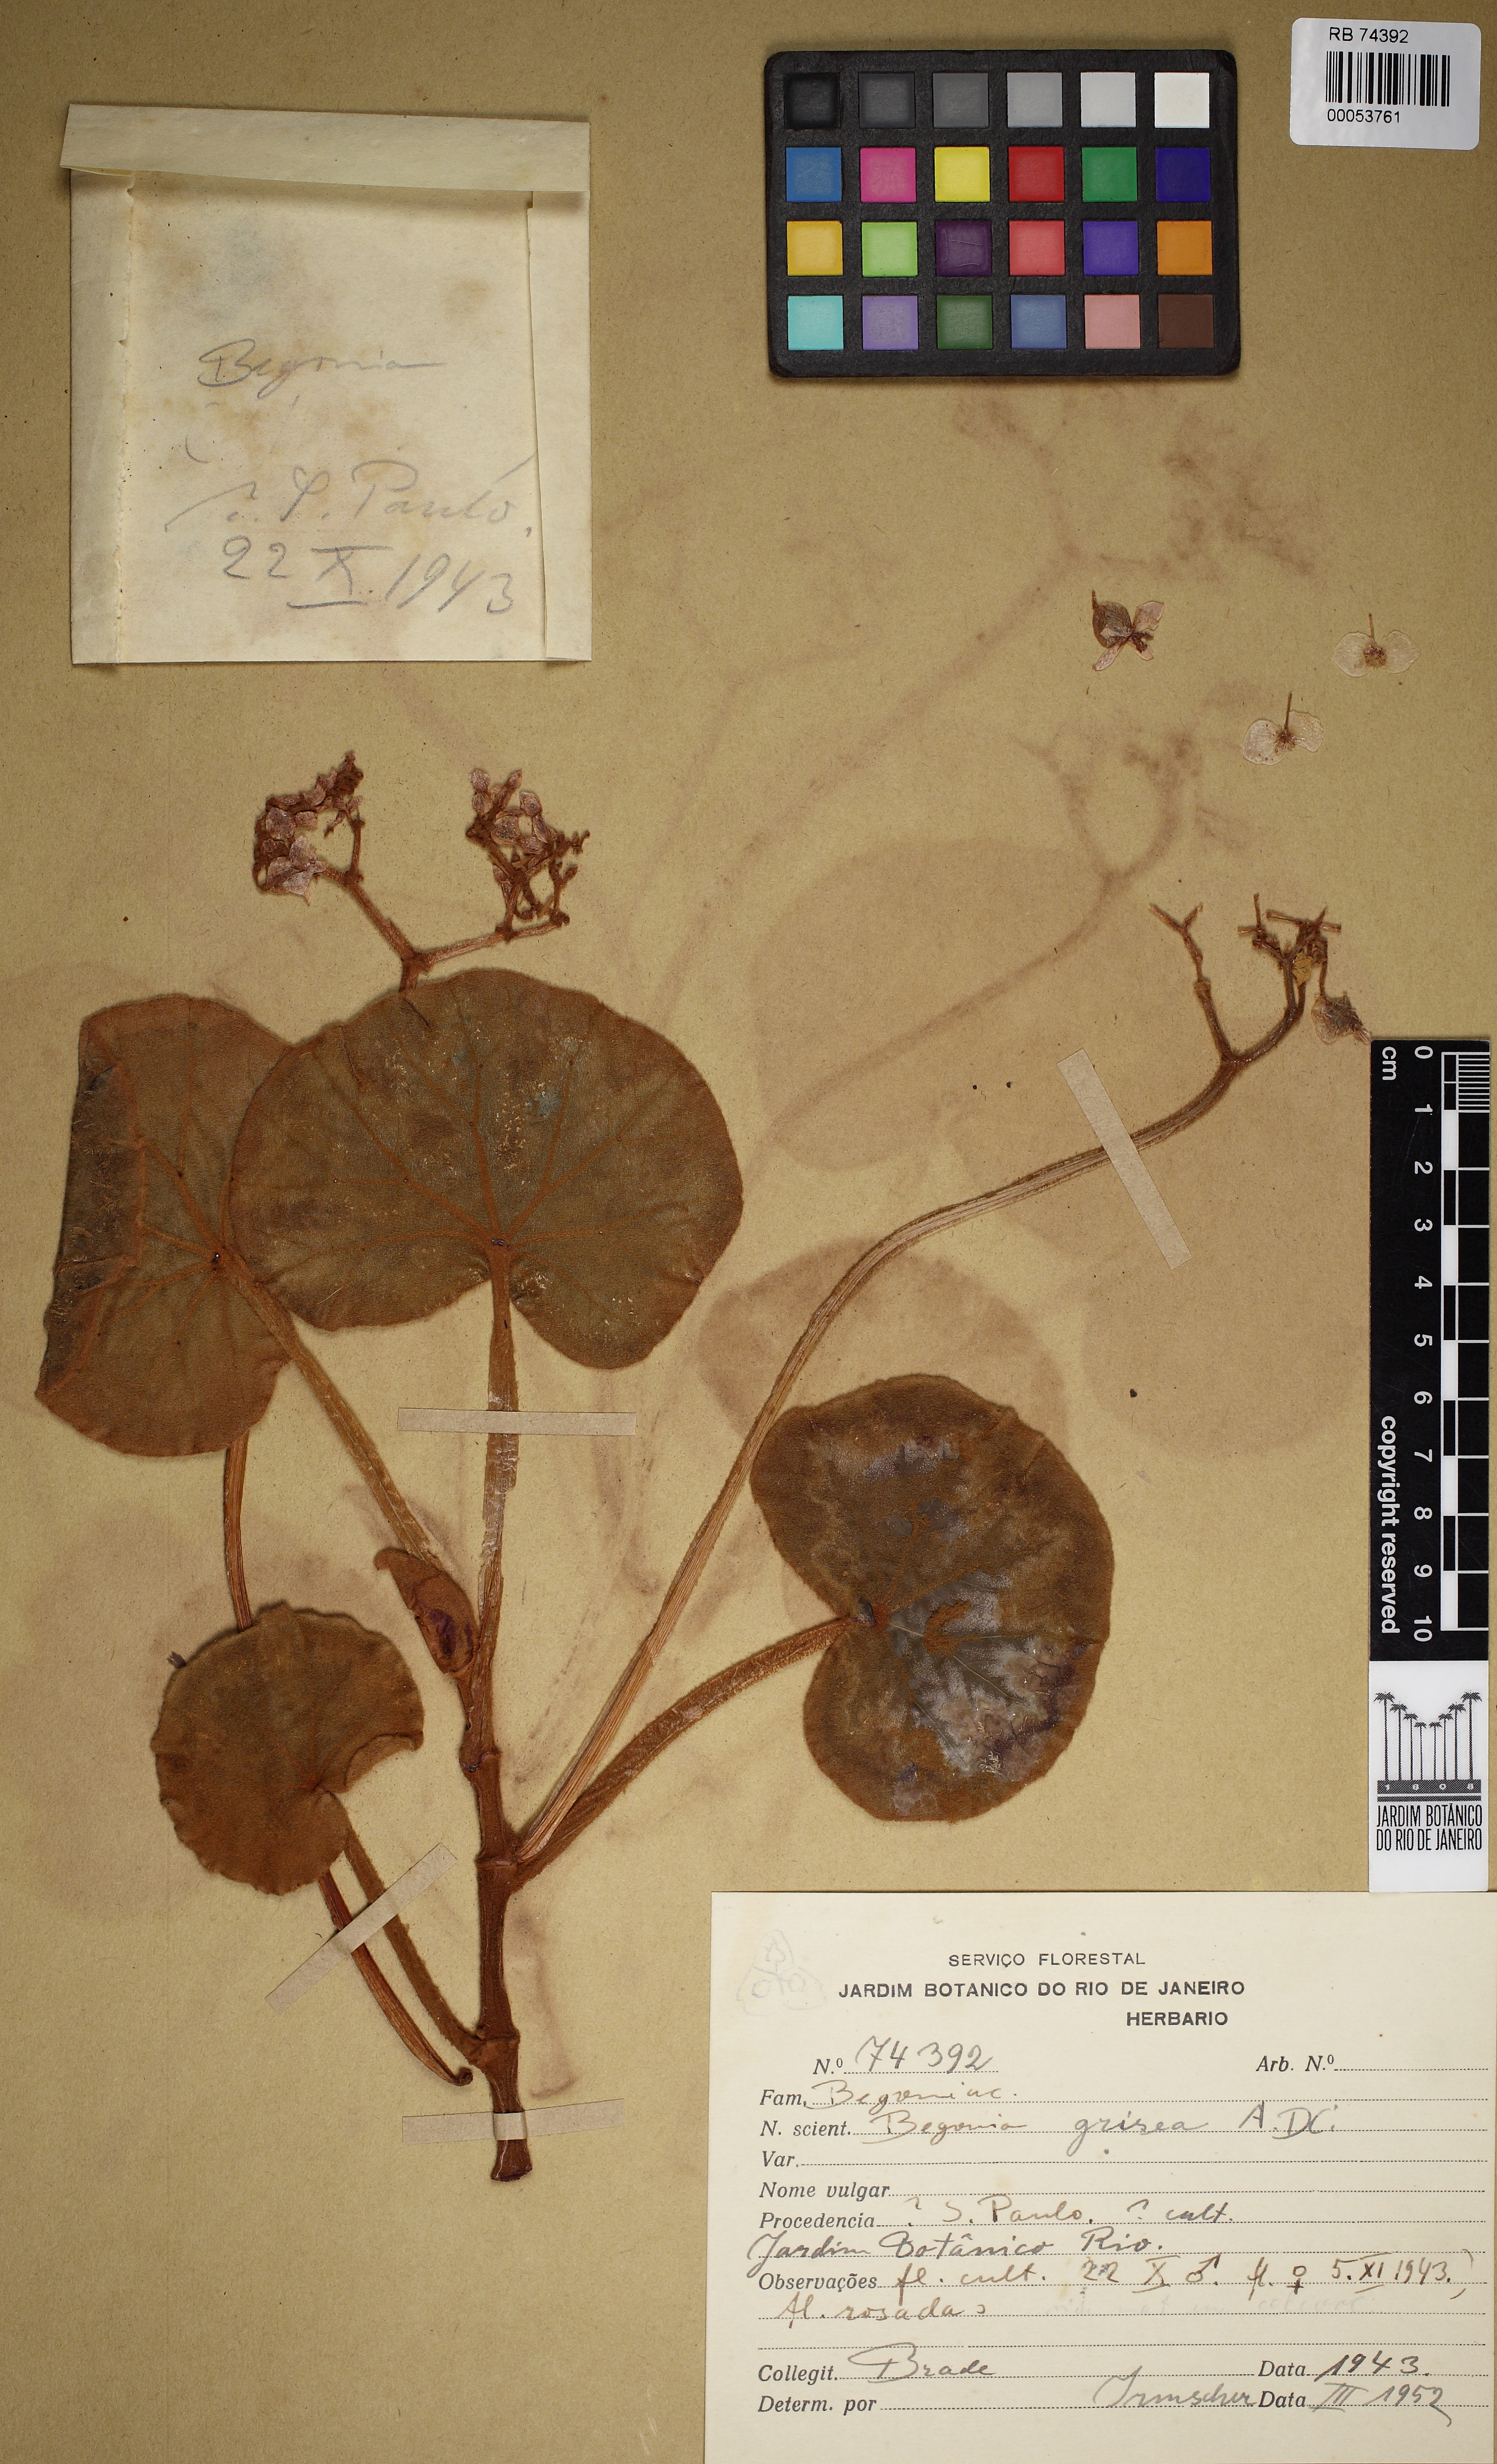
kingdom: Plantae
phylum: Tracheophyta
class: Magnoliopsida
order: Cucurbitales
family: Begoniaceae
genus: Begonia
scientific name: Begonia grisea
